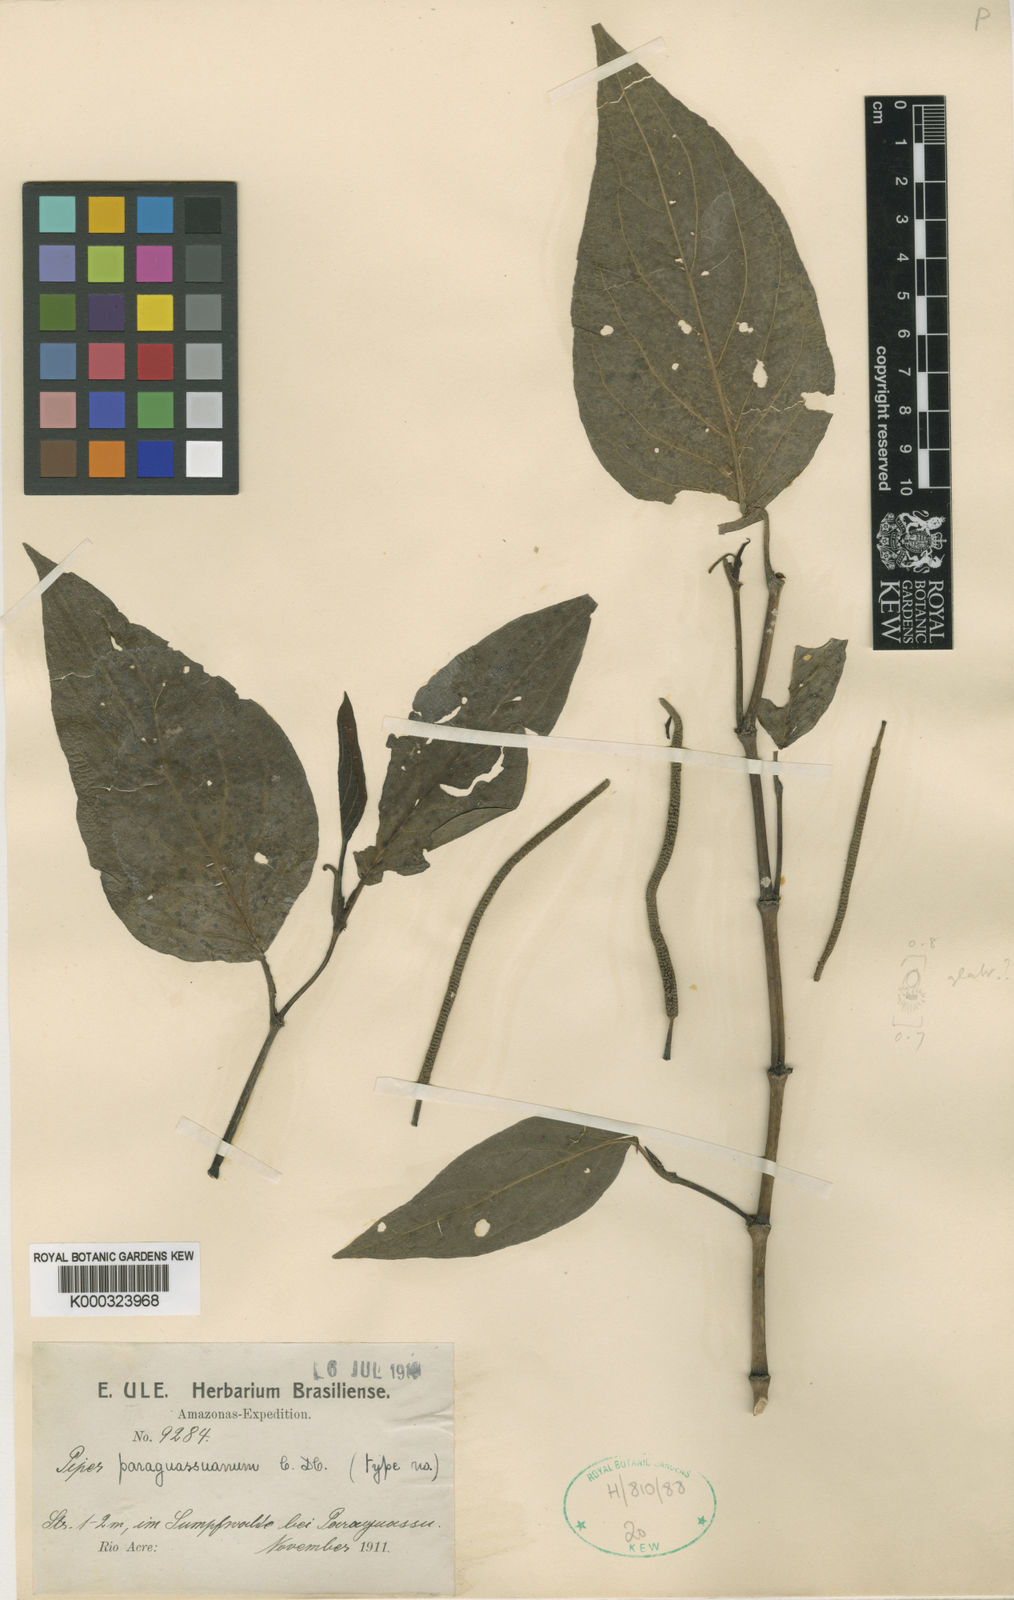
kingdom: Plantae
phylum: Tracheophyta
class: Magnoliopsida
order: Piperales
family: Piperaceae
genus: Piper
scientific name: Piper paraguassuanum
